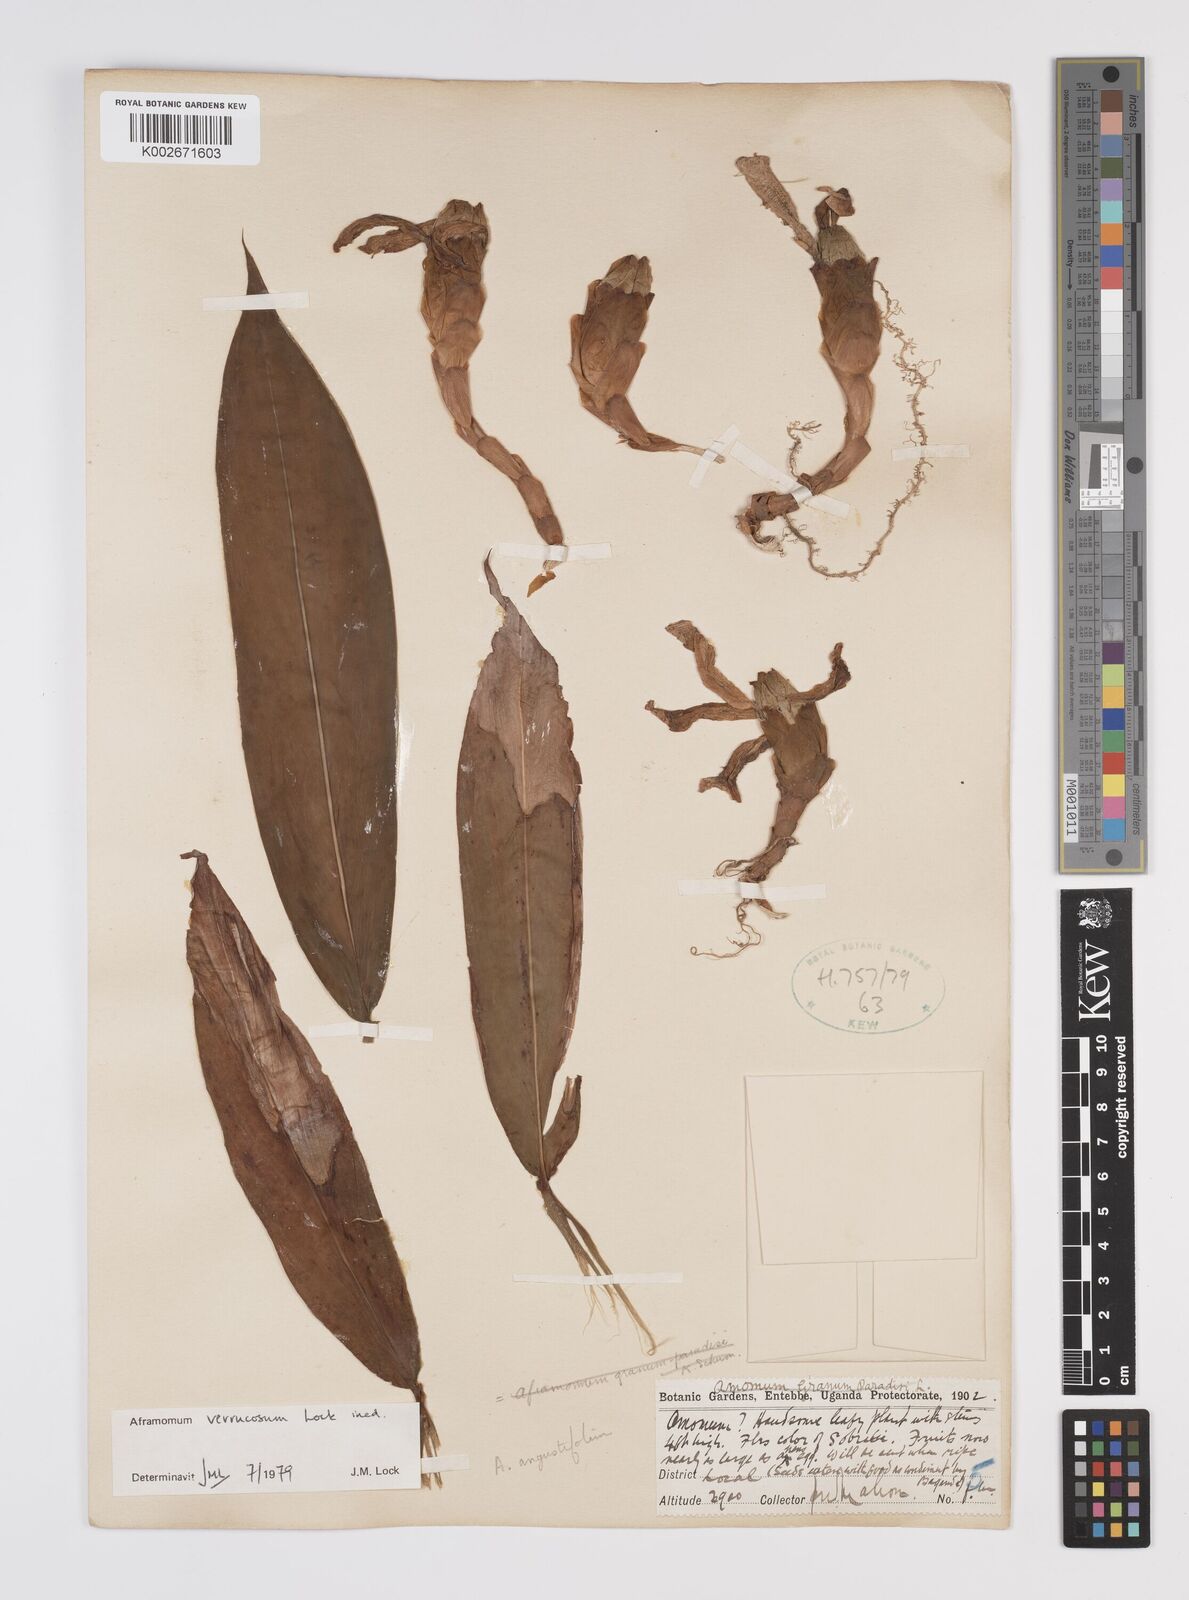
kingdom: Plantae
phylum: Tracheophyta
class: Liliopsida
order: Zingiberales
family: Zingiberaceae
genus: Aframomum
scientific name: Aframomum verrucosum
